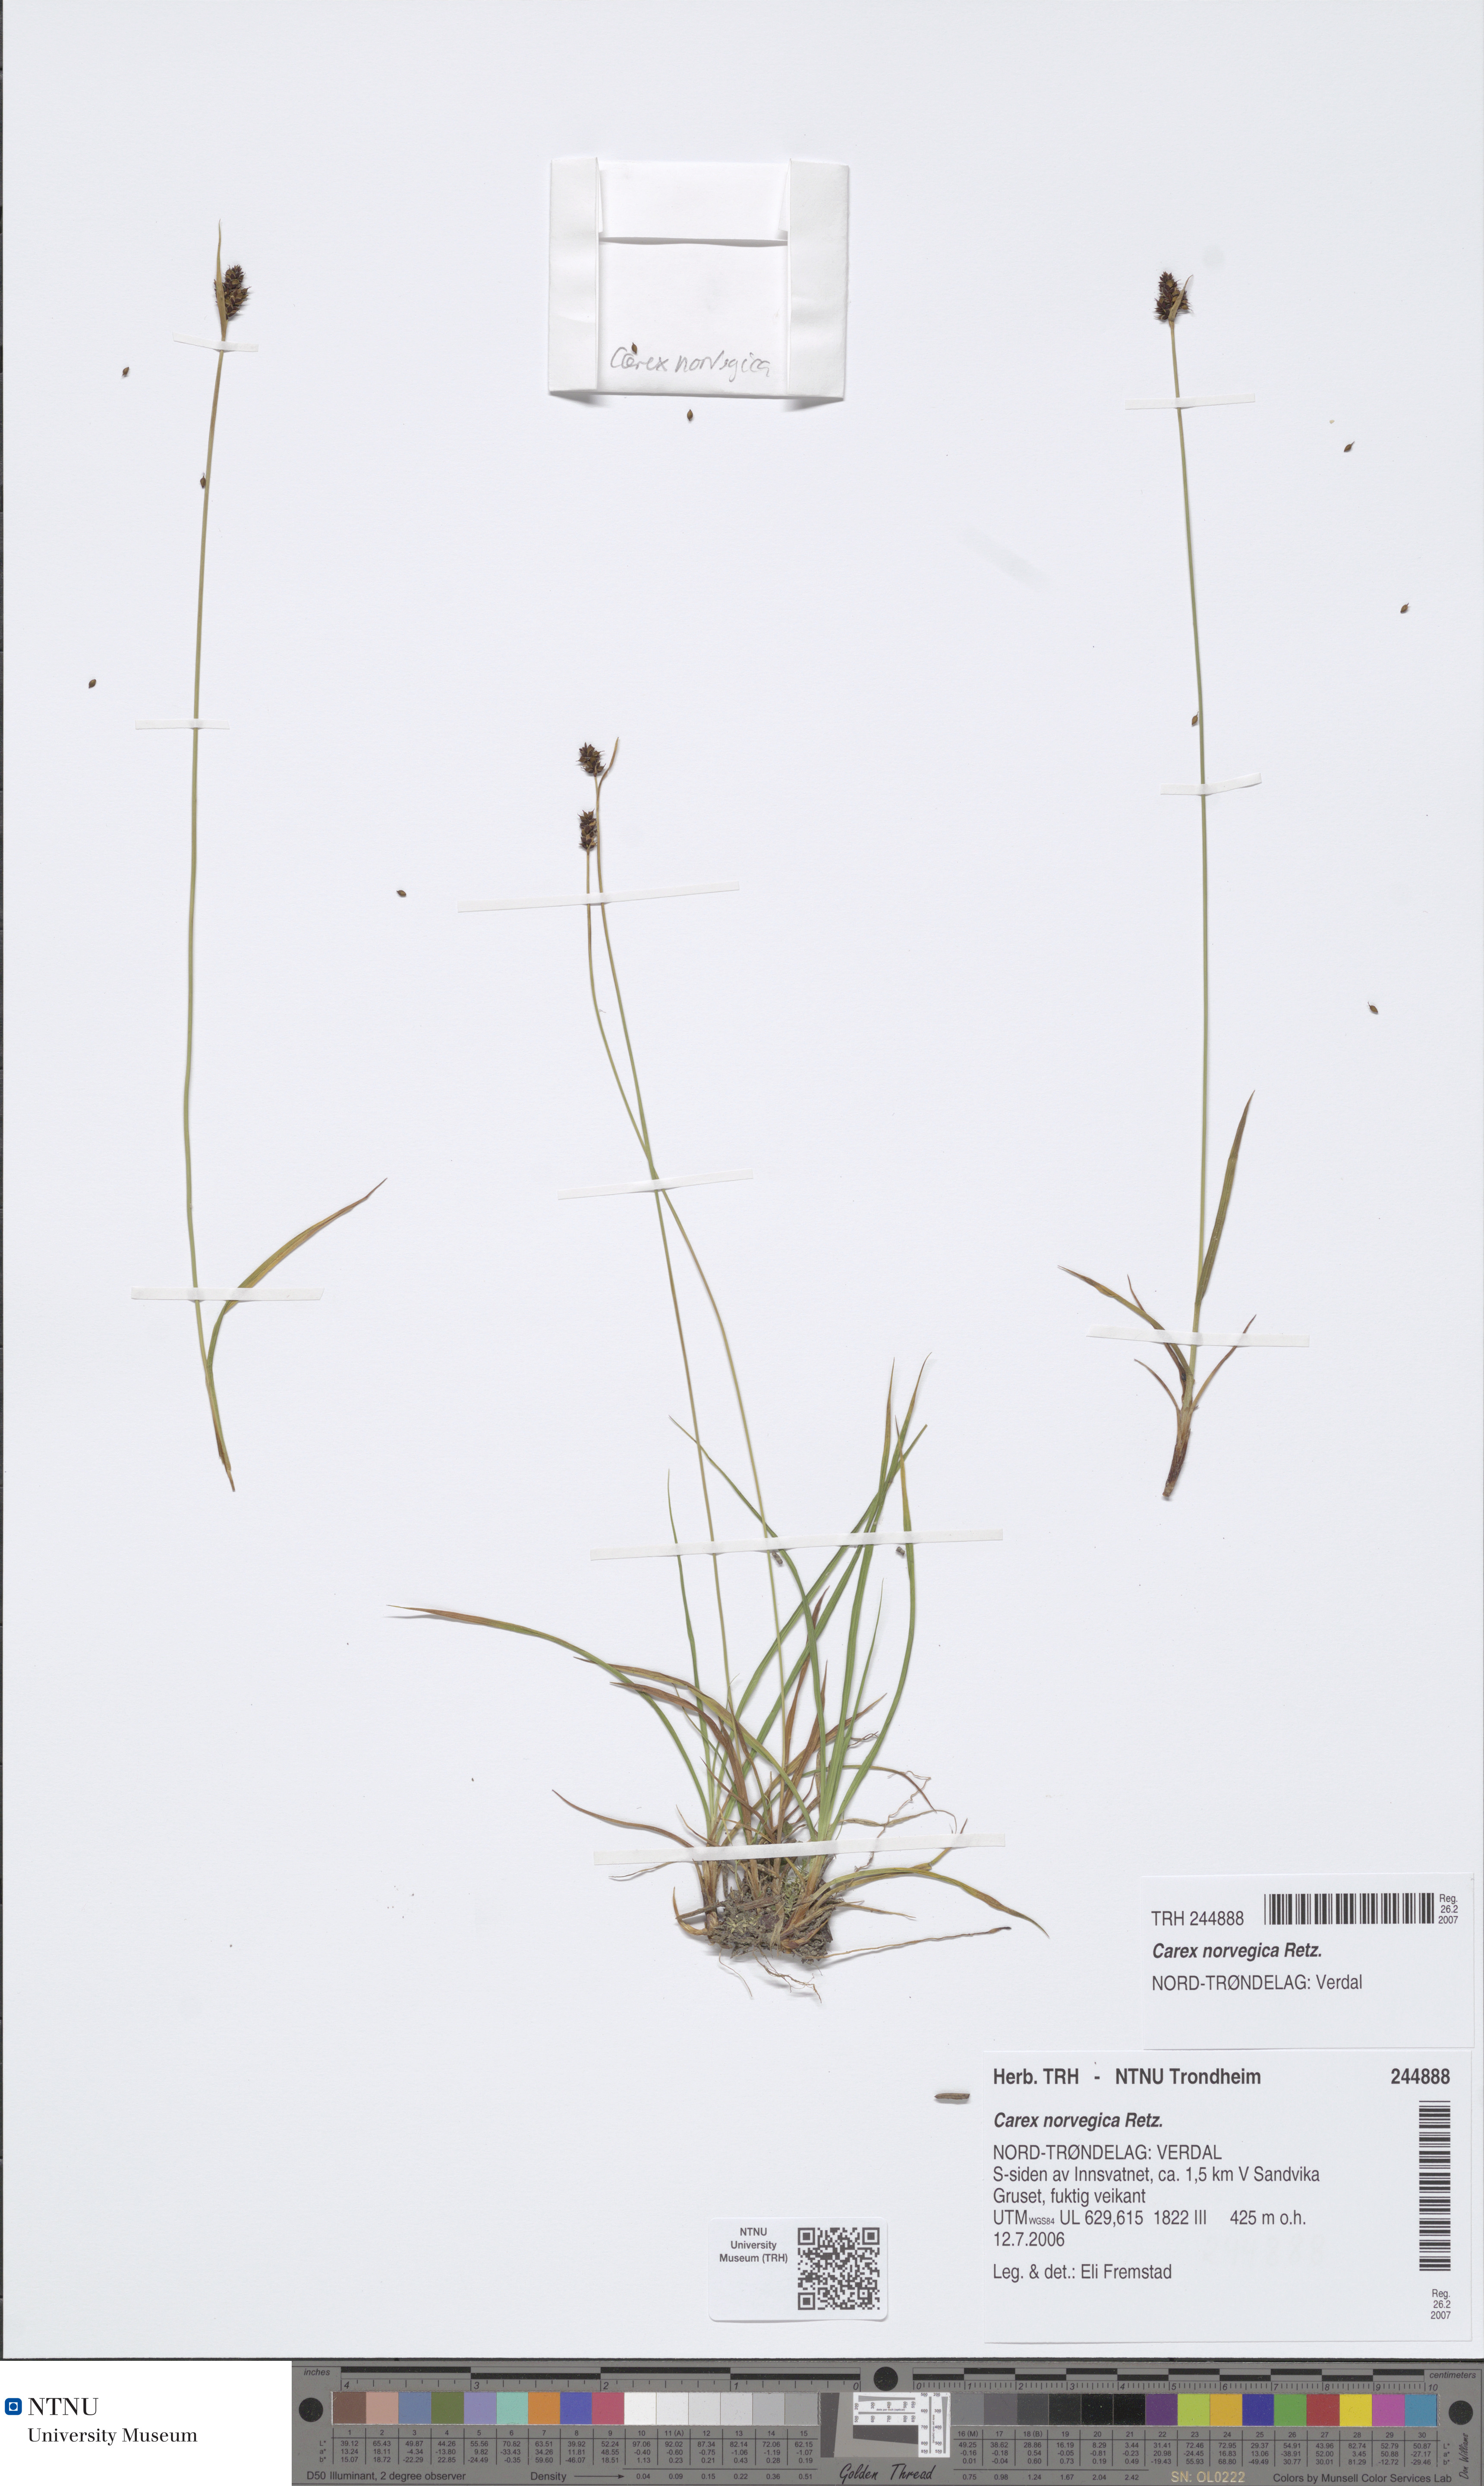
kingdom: Plantae
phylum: Tracheophyta
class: Liliopsida
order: Poales
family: Cyperaceae
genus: Carex
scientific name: Carex norvegica
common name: Close-headed alpine-sedge
